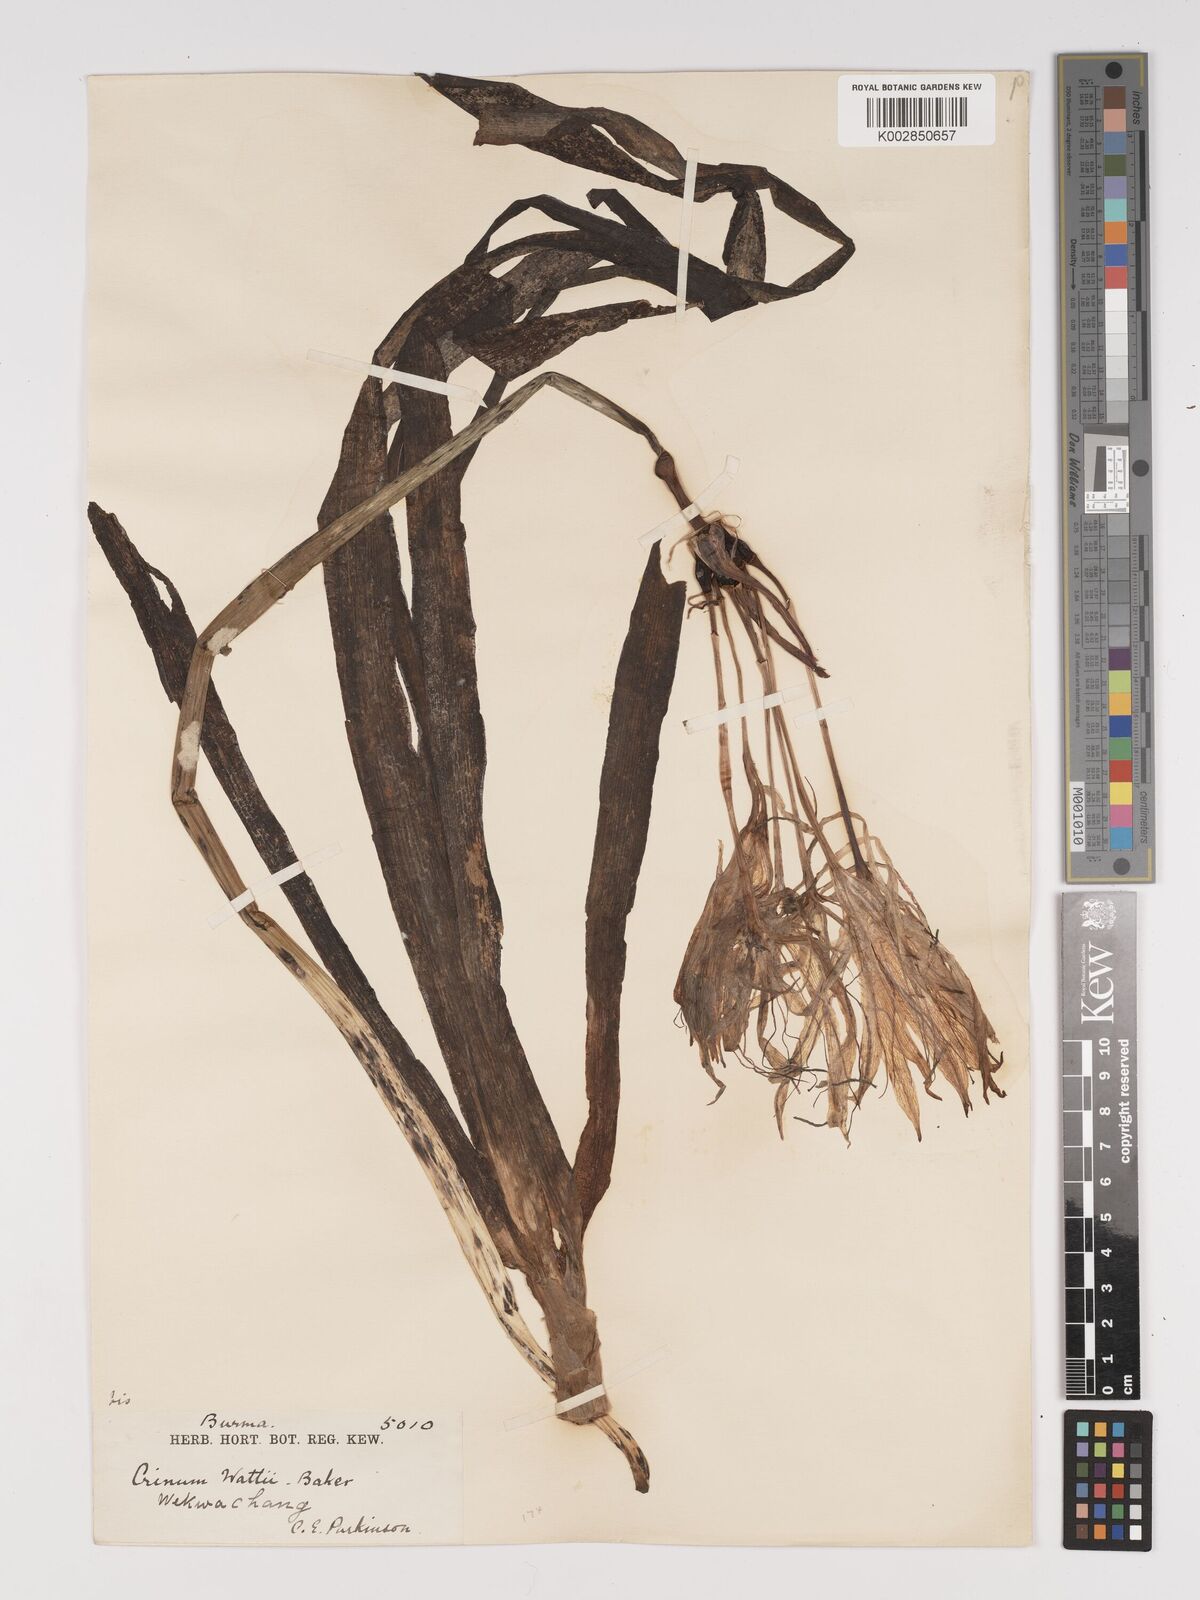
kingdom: Plantae
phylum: Tracheophyta
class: Liliopsida
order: Asparagales
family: Amaryllidaceae
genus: Crinum
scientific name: Crinum wattii
